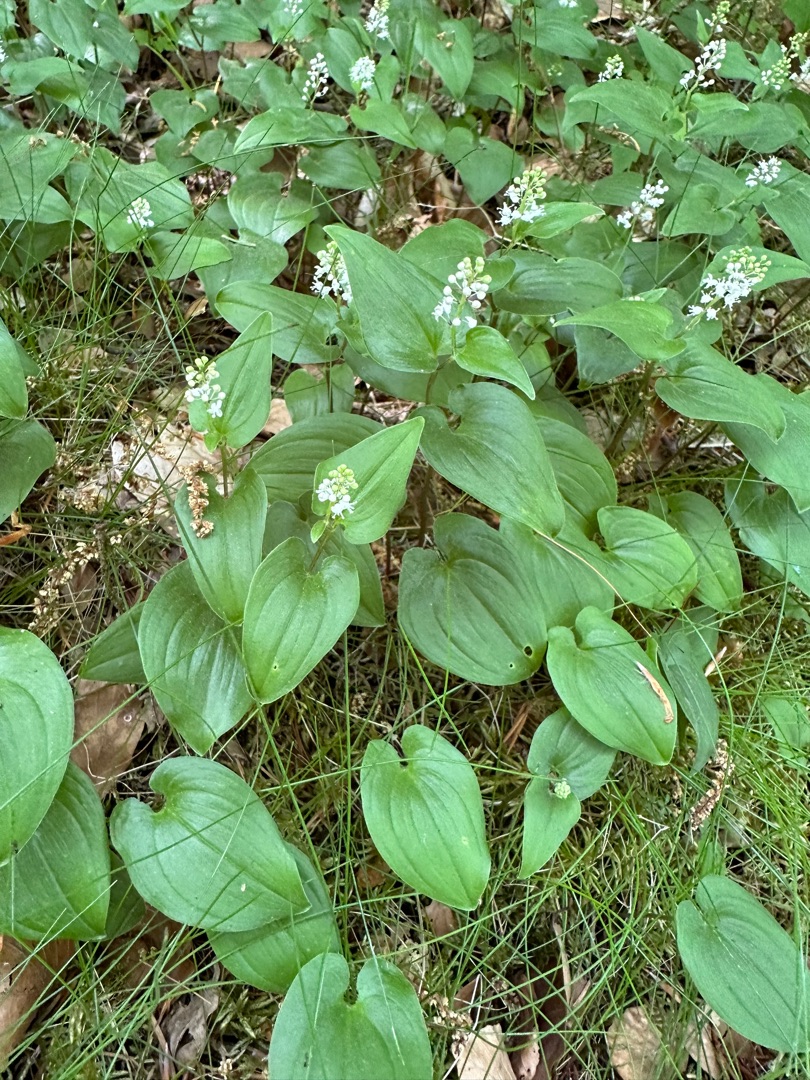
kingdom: Plantae
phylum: Tracheophyta
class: Liliopsida
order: Asparagales
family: Asparagaceae
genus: Maianthemum
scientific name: Maianthemum bifolium
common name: Majblomst
